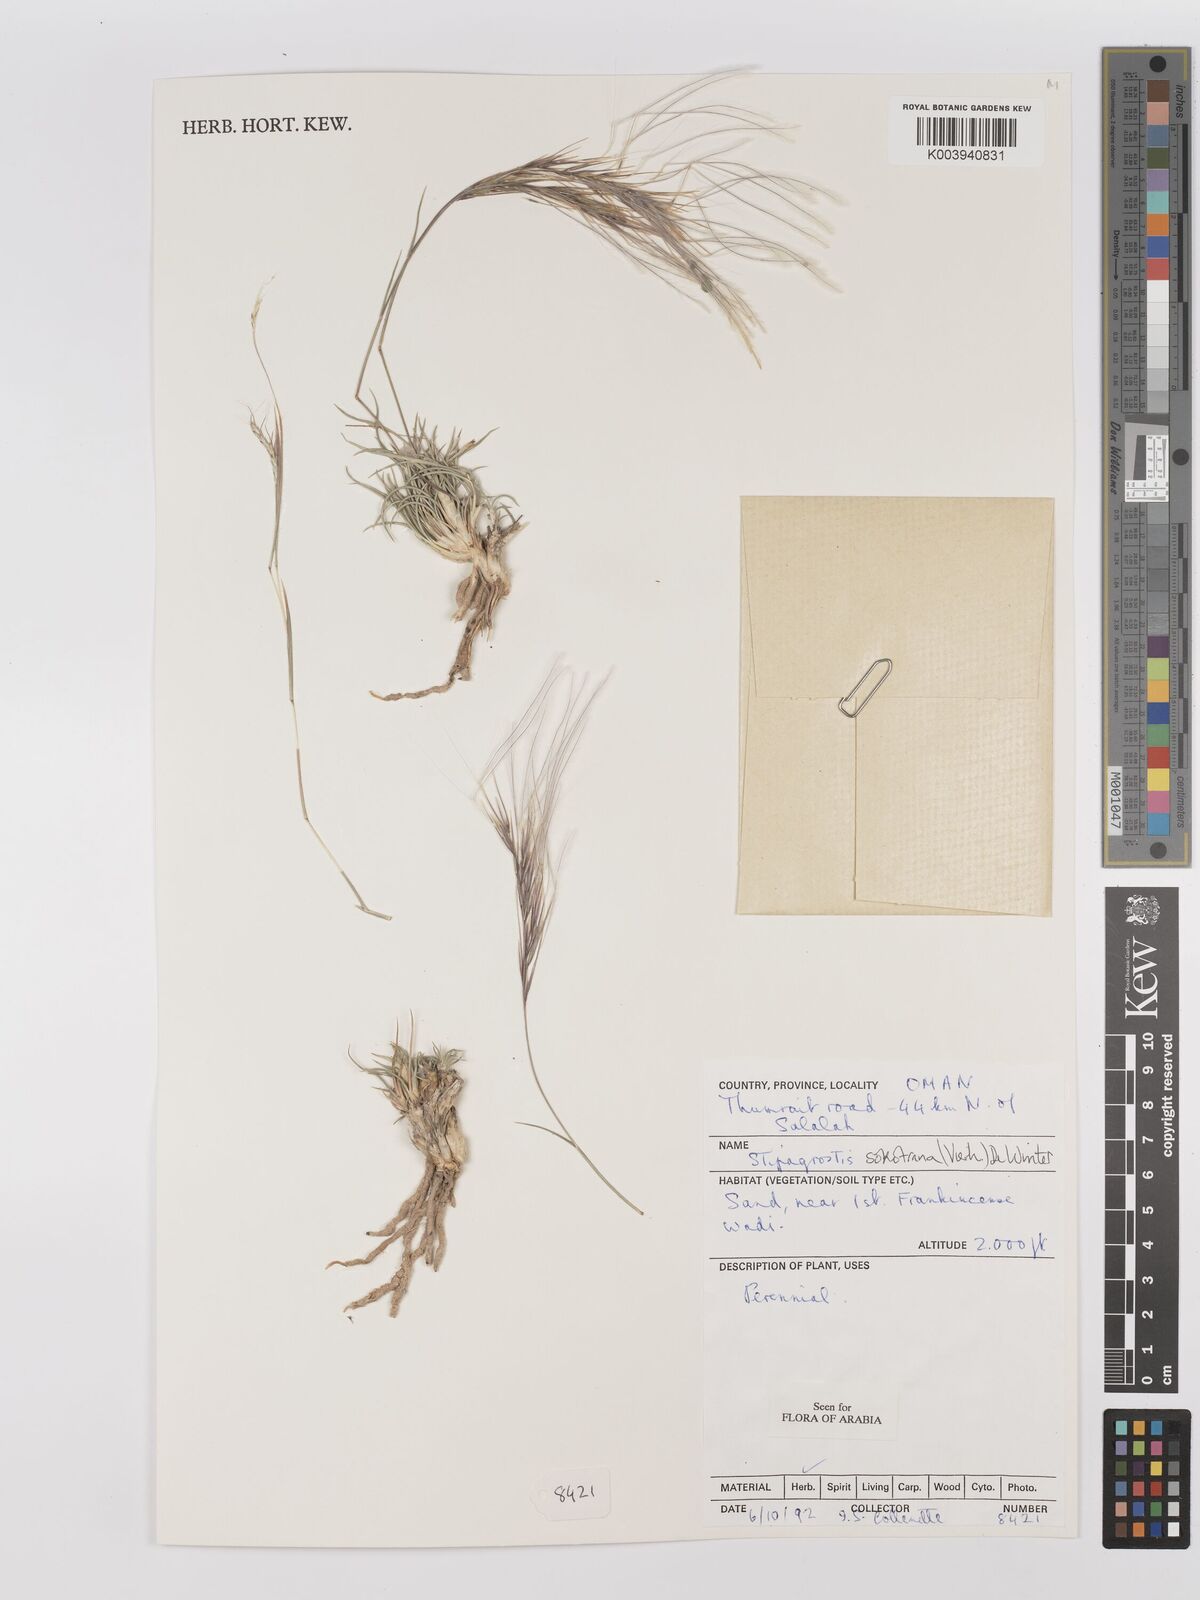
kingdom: Plantae
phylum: Tracheophyta
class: Liliopsida
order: Poales
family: Poaceae
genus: Stipagrostis
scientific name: Stipagrostis sokotrana
